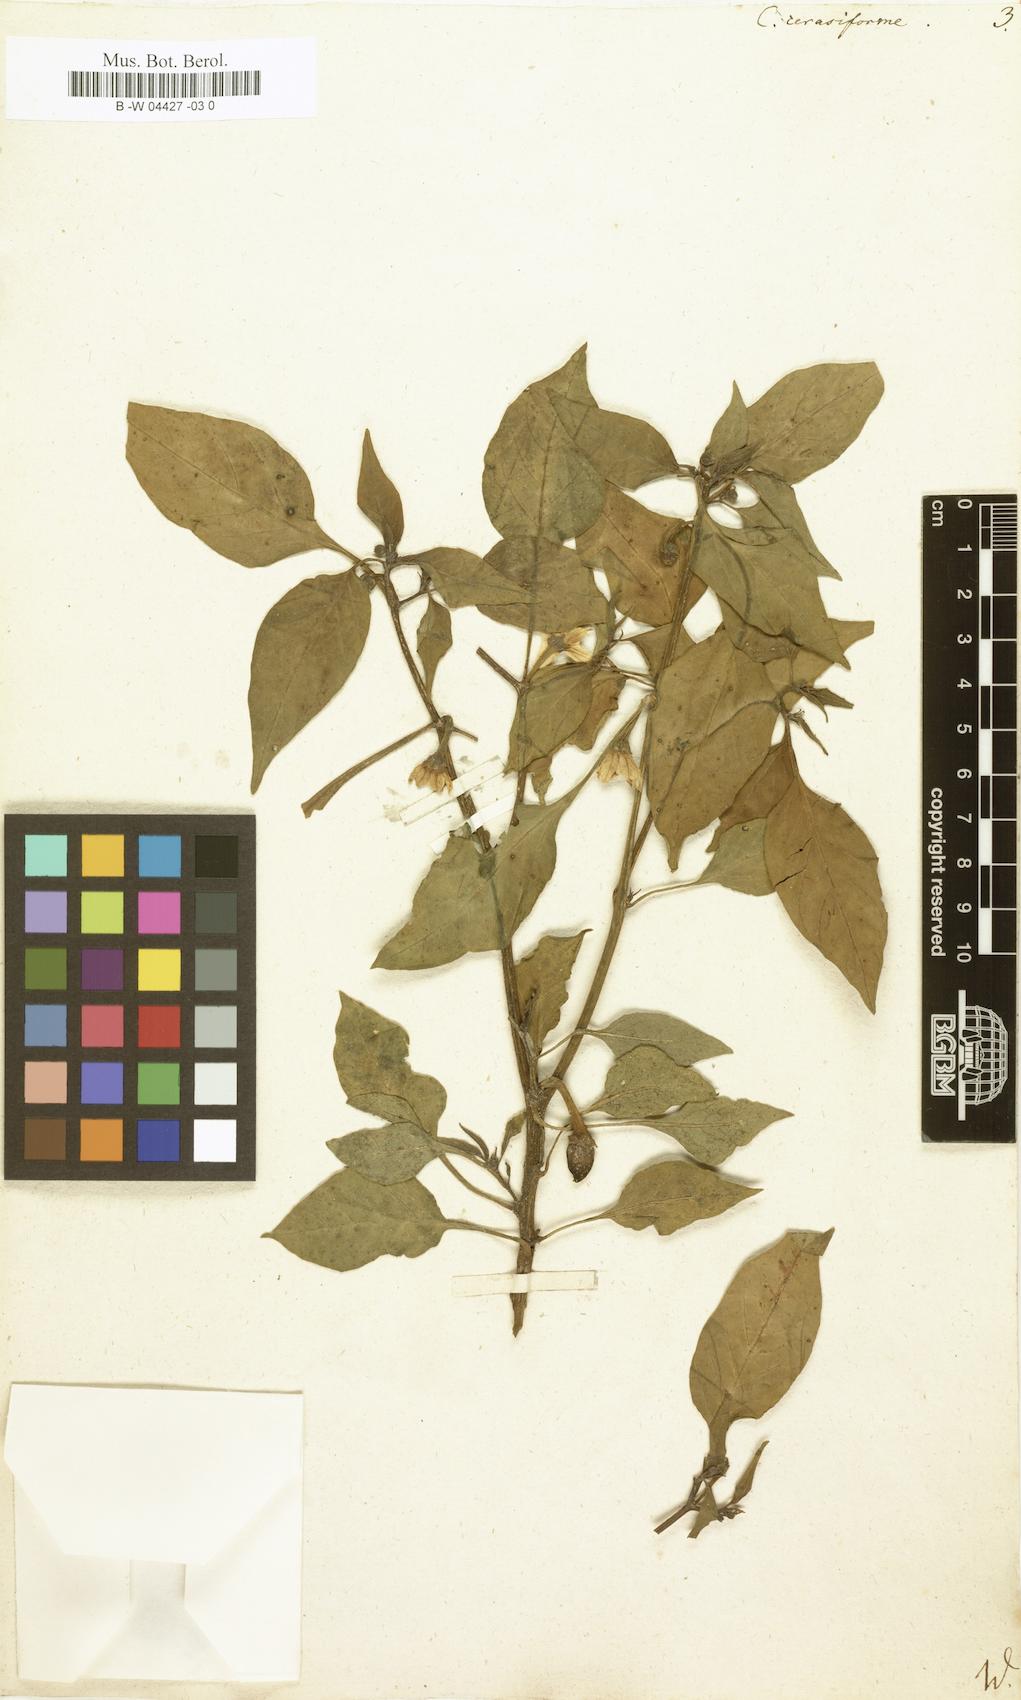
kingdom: Plantae
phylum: Tracheophyta
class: Magnoliopsida
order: Solanales
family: Solanaceae
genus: Capsicum
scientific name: Capsicum
